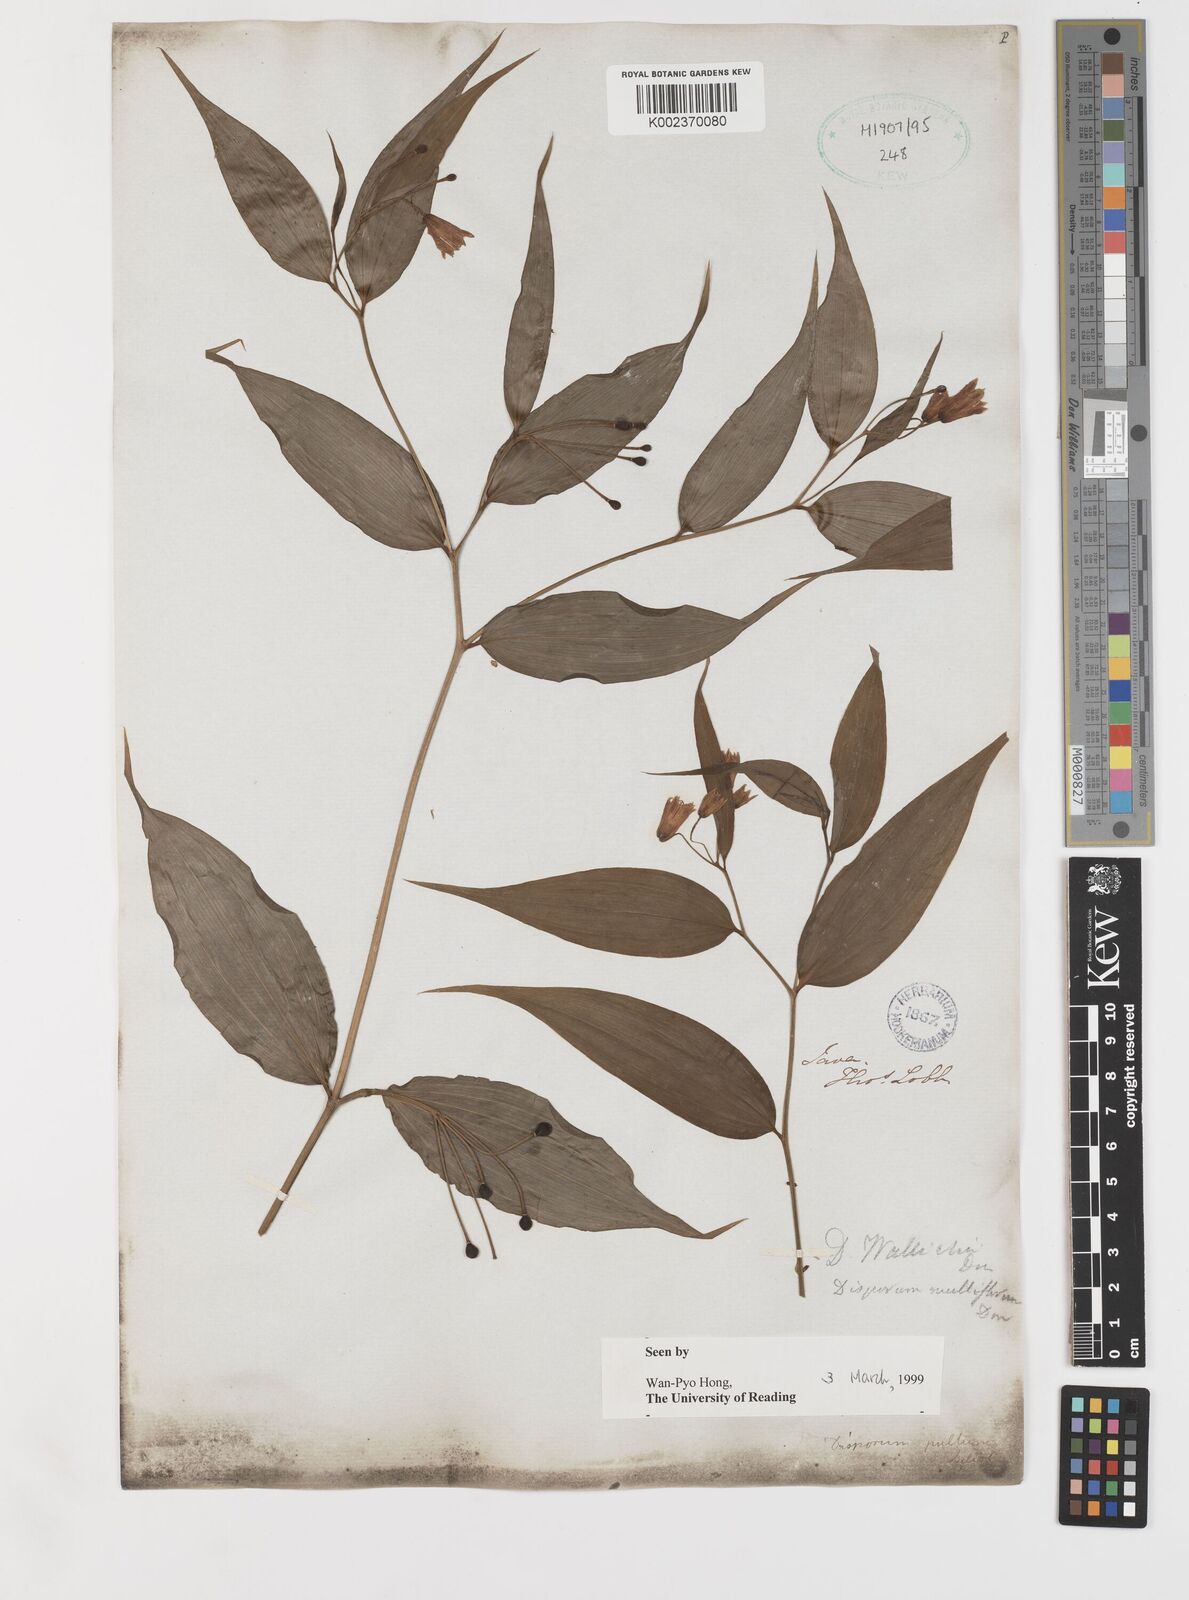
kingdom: Plantae
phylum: Tracheophyta
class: Liliopsida
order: Liliales
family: Colchicaceae
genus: Disporum
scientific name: Disporum cantoniense
